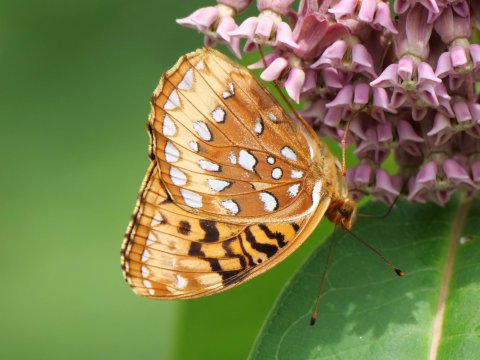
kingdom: Animalia
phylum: Arthropoda
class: Insecta
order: Lepidoptera
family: Nymphalidae
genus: Speyeria
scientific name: Speyeria cybele
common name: Great Spangled Fritillary
